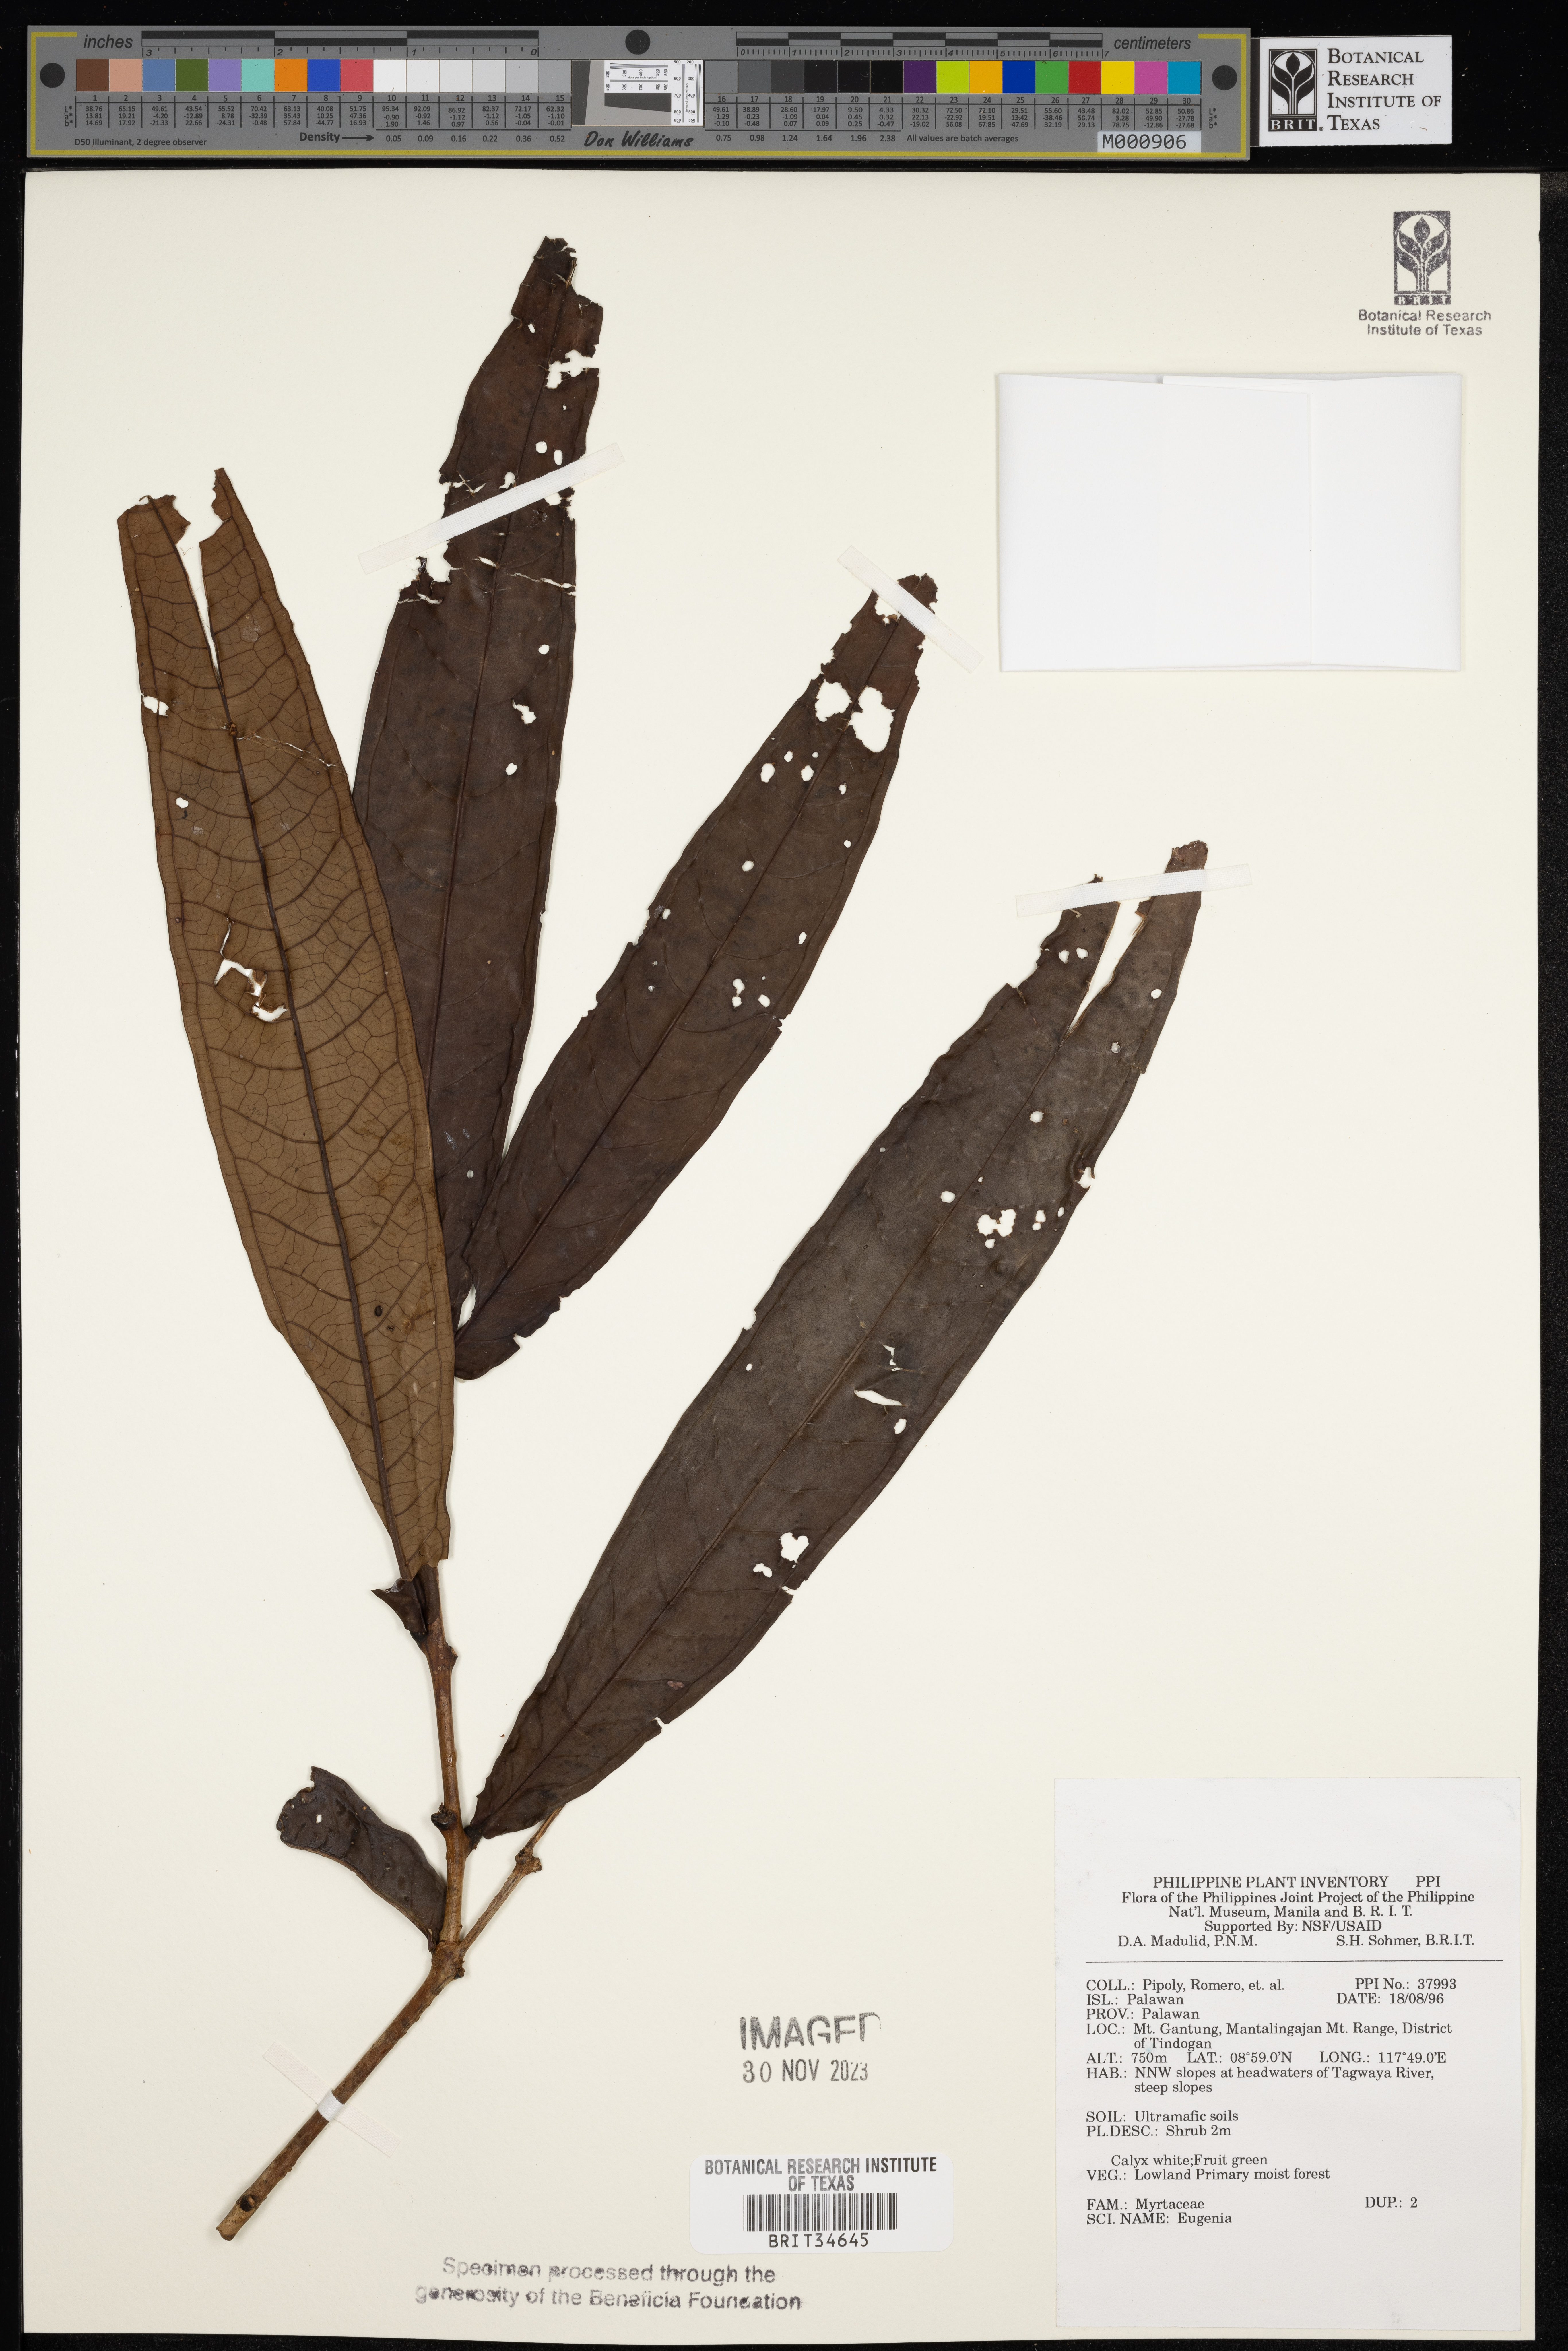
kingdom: Plantae
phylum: Tracheophyta
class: Magnoliopsida
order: Myrtales
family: Myrtaceae
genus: Eugenia
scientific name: Eugenia
